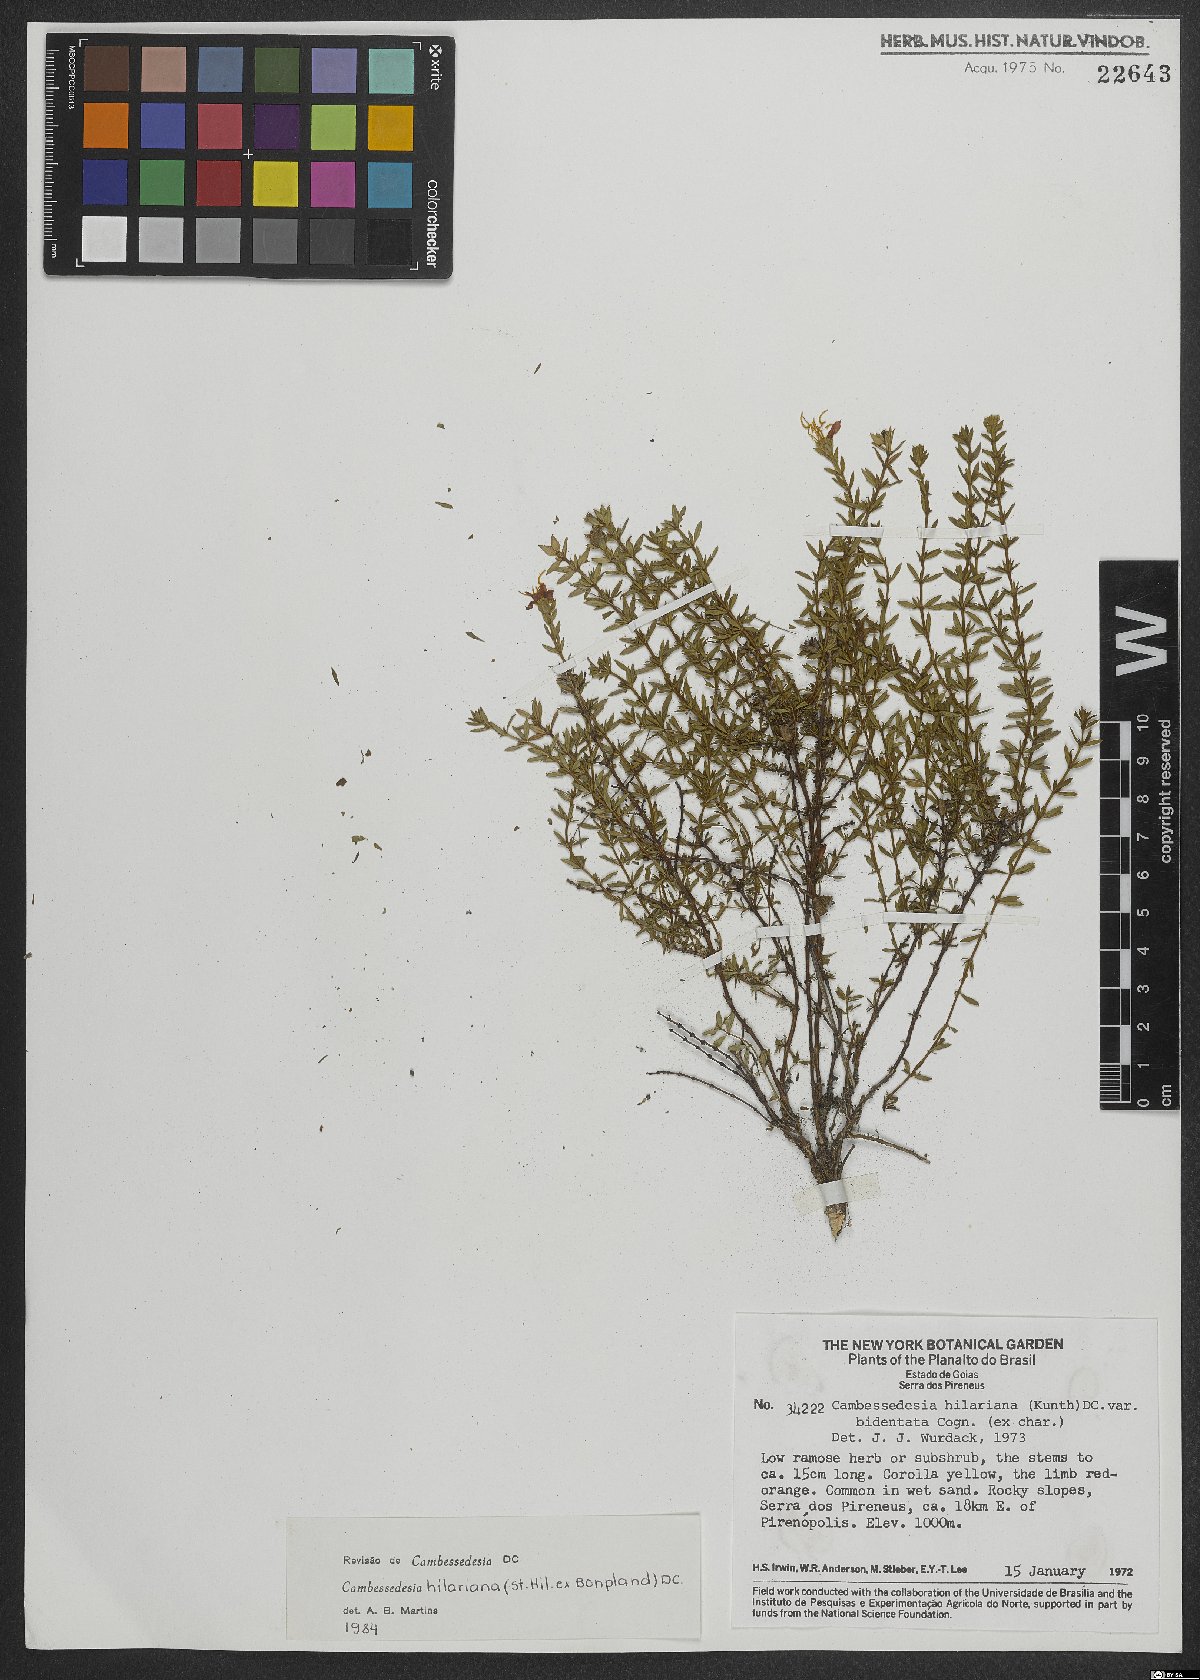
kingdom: Plantae
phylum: Tracheophyta
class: Magnoliopsida
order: Myrtales
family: Melastomataceae
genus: Cambessedesia
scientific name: Cambessedesia hilariana
